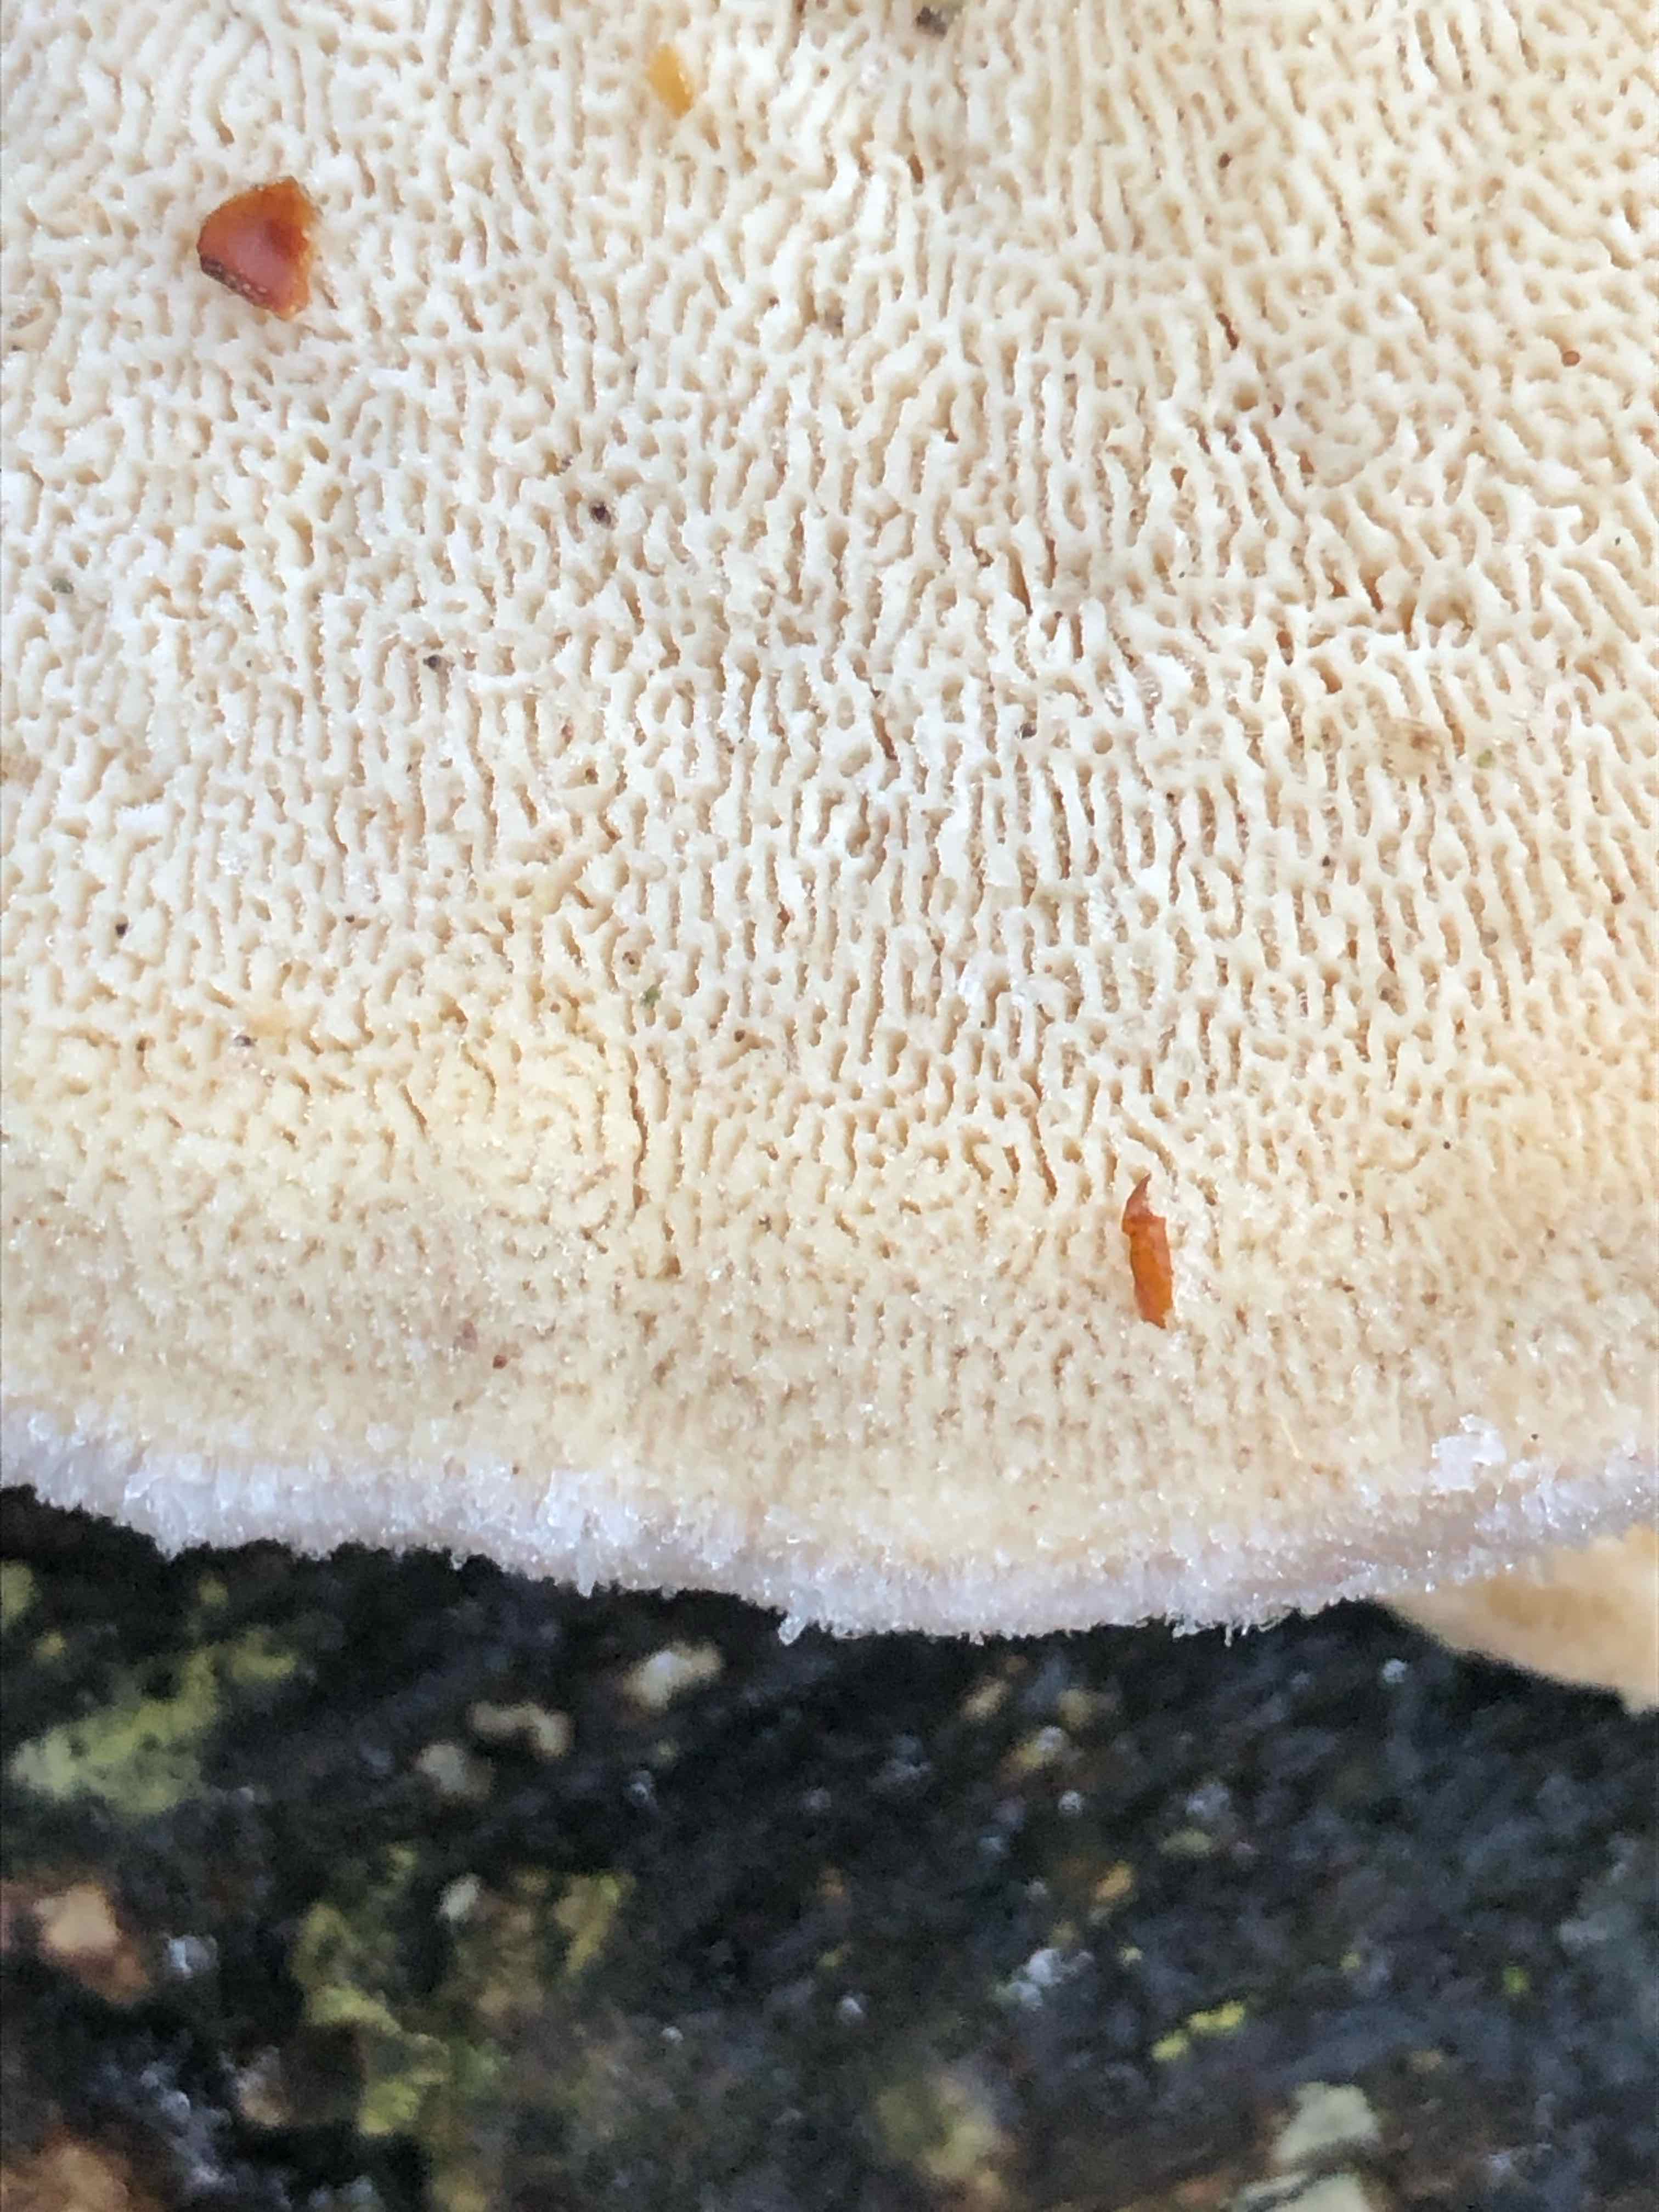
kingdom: Fungi
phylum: Basidiomycota
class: Agaricomycetes
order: Polyporales
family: Polyporaceae
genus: Trametes
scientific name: Trametes gibbosa
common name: puklet læderporesvamp
